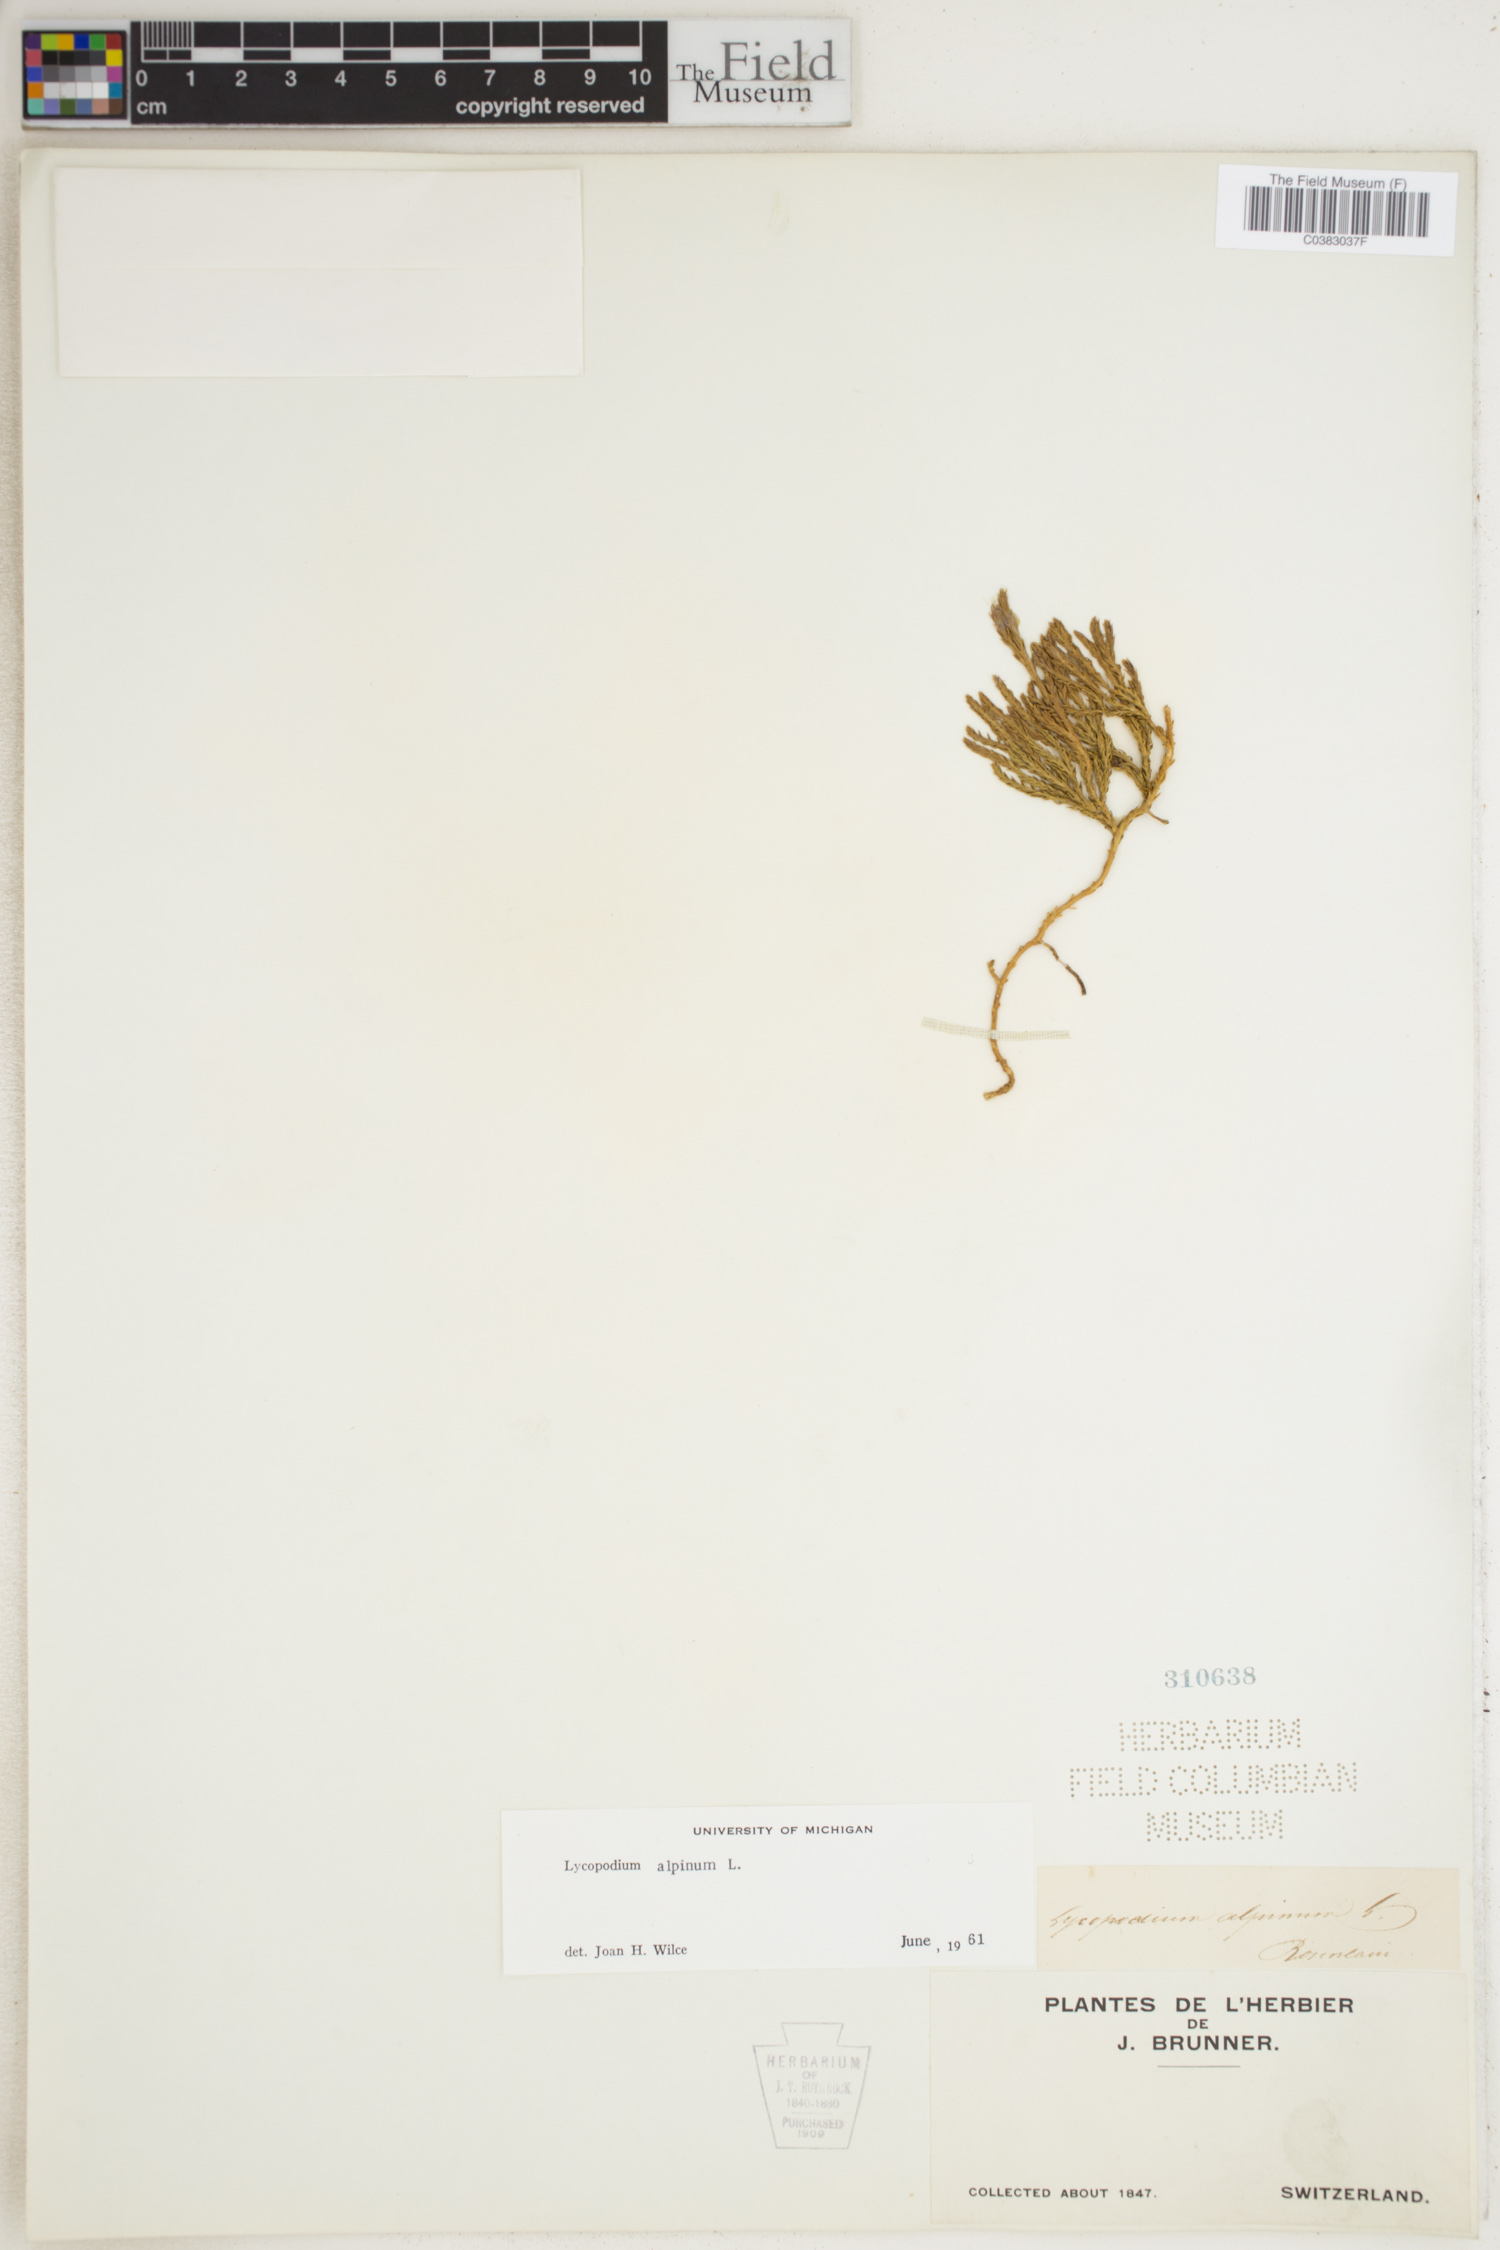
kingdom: Plantae
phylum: Tracheophyta
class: Lycopodiopsida
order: Lycopodiales
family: Lycopodiaceae
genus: Diphasiastrum
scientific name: Diphasiastrum alpinum
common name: Alpine clubmoss
